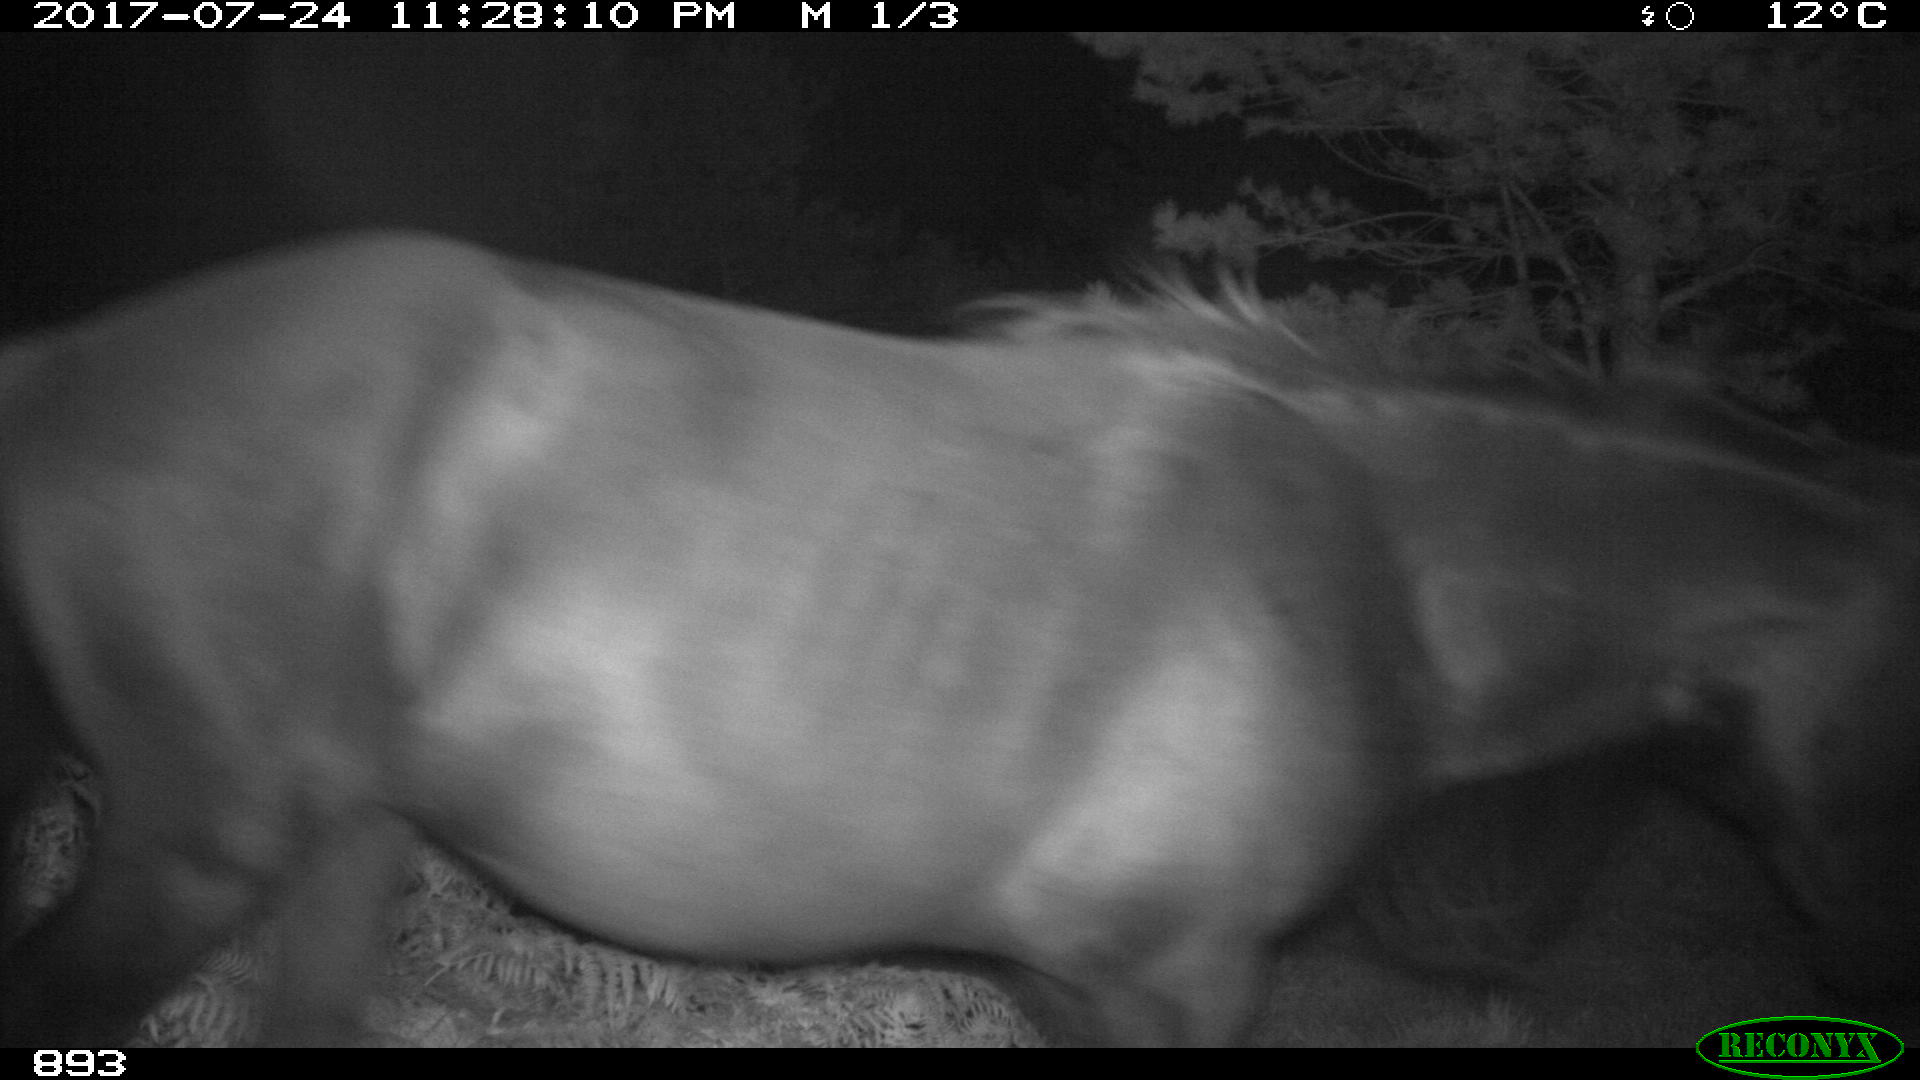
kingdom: Animalia
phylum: Chordata
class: Mammalia
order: Perissodactyla
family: Equidae
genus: Equus
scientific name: Equus caballus
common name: Horse
